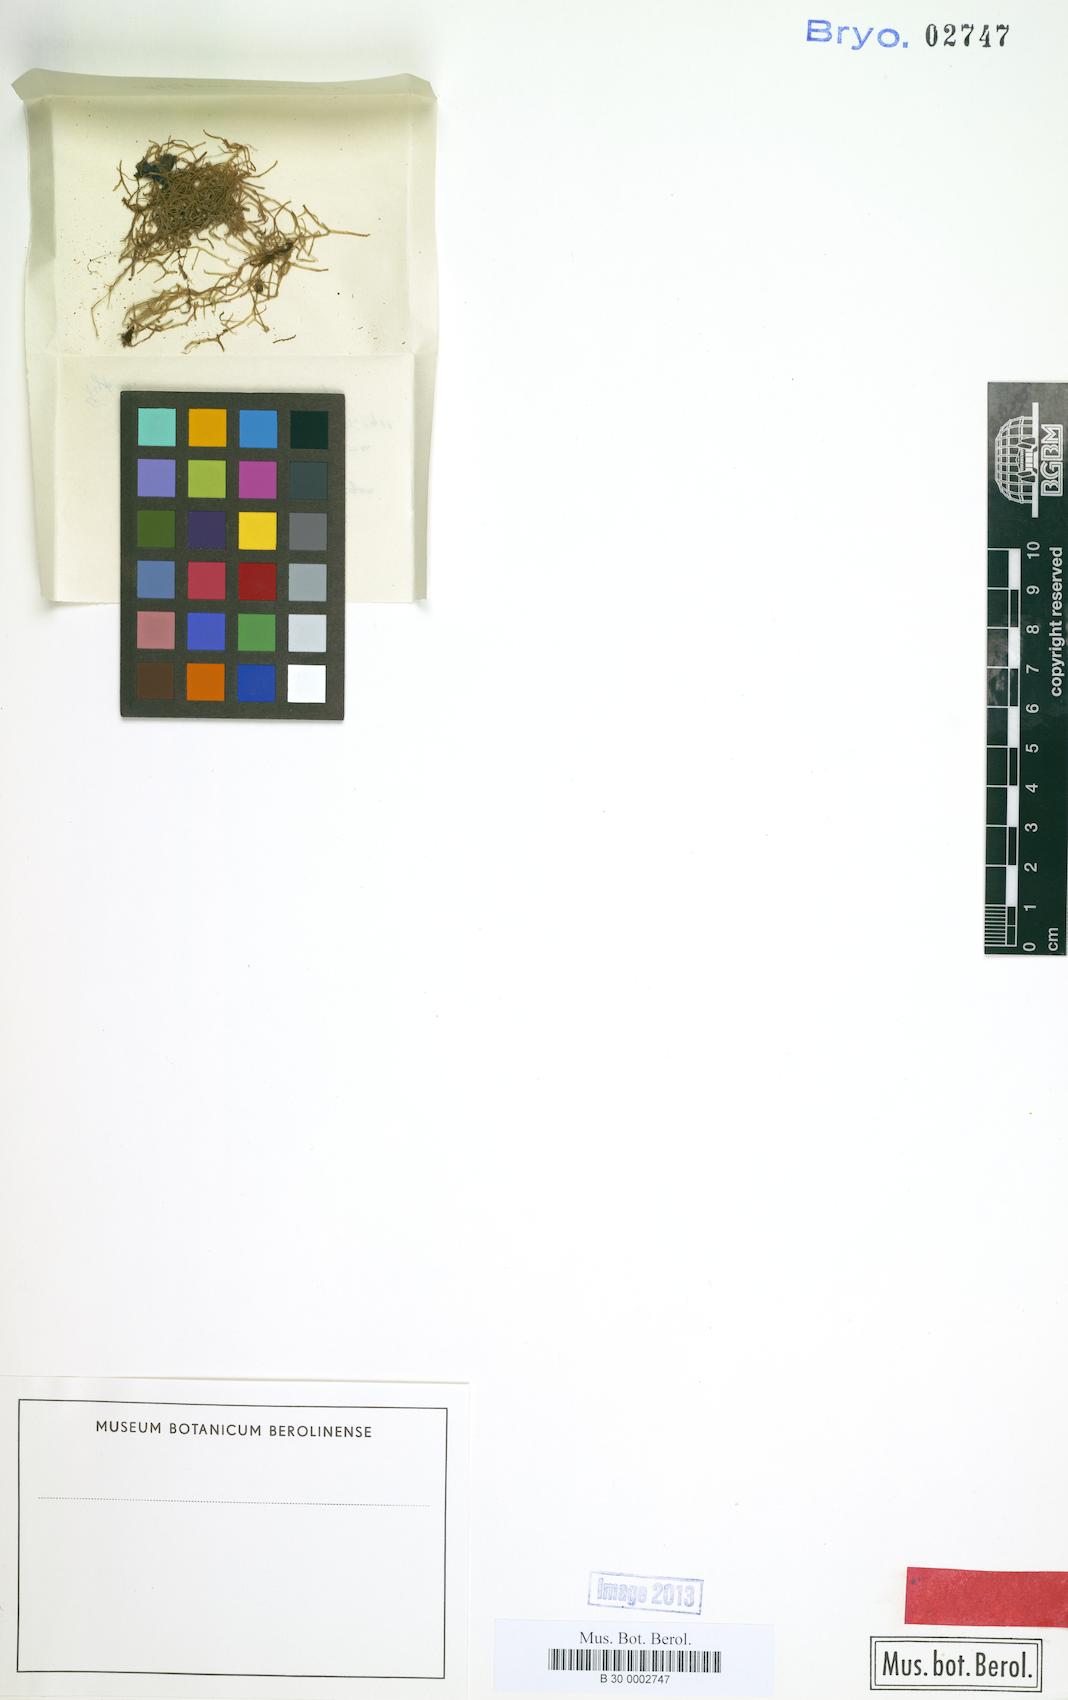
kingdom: Plantae
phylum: Marchantiophyta
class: Jungermanniopsida
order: Metzgeriales
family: Metzgeriaceae
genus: Metzgeria
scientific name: Metzgeria
